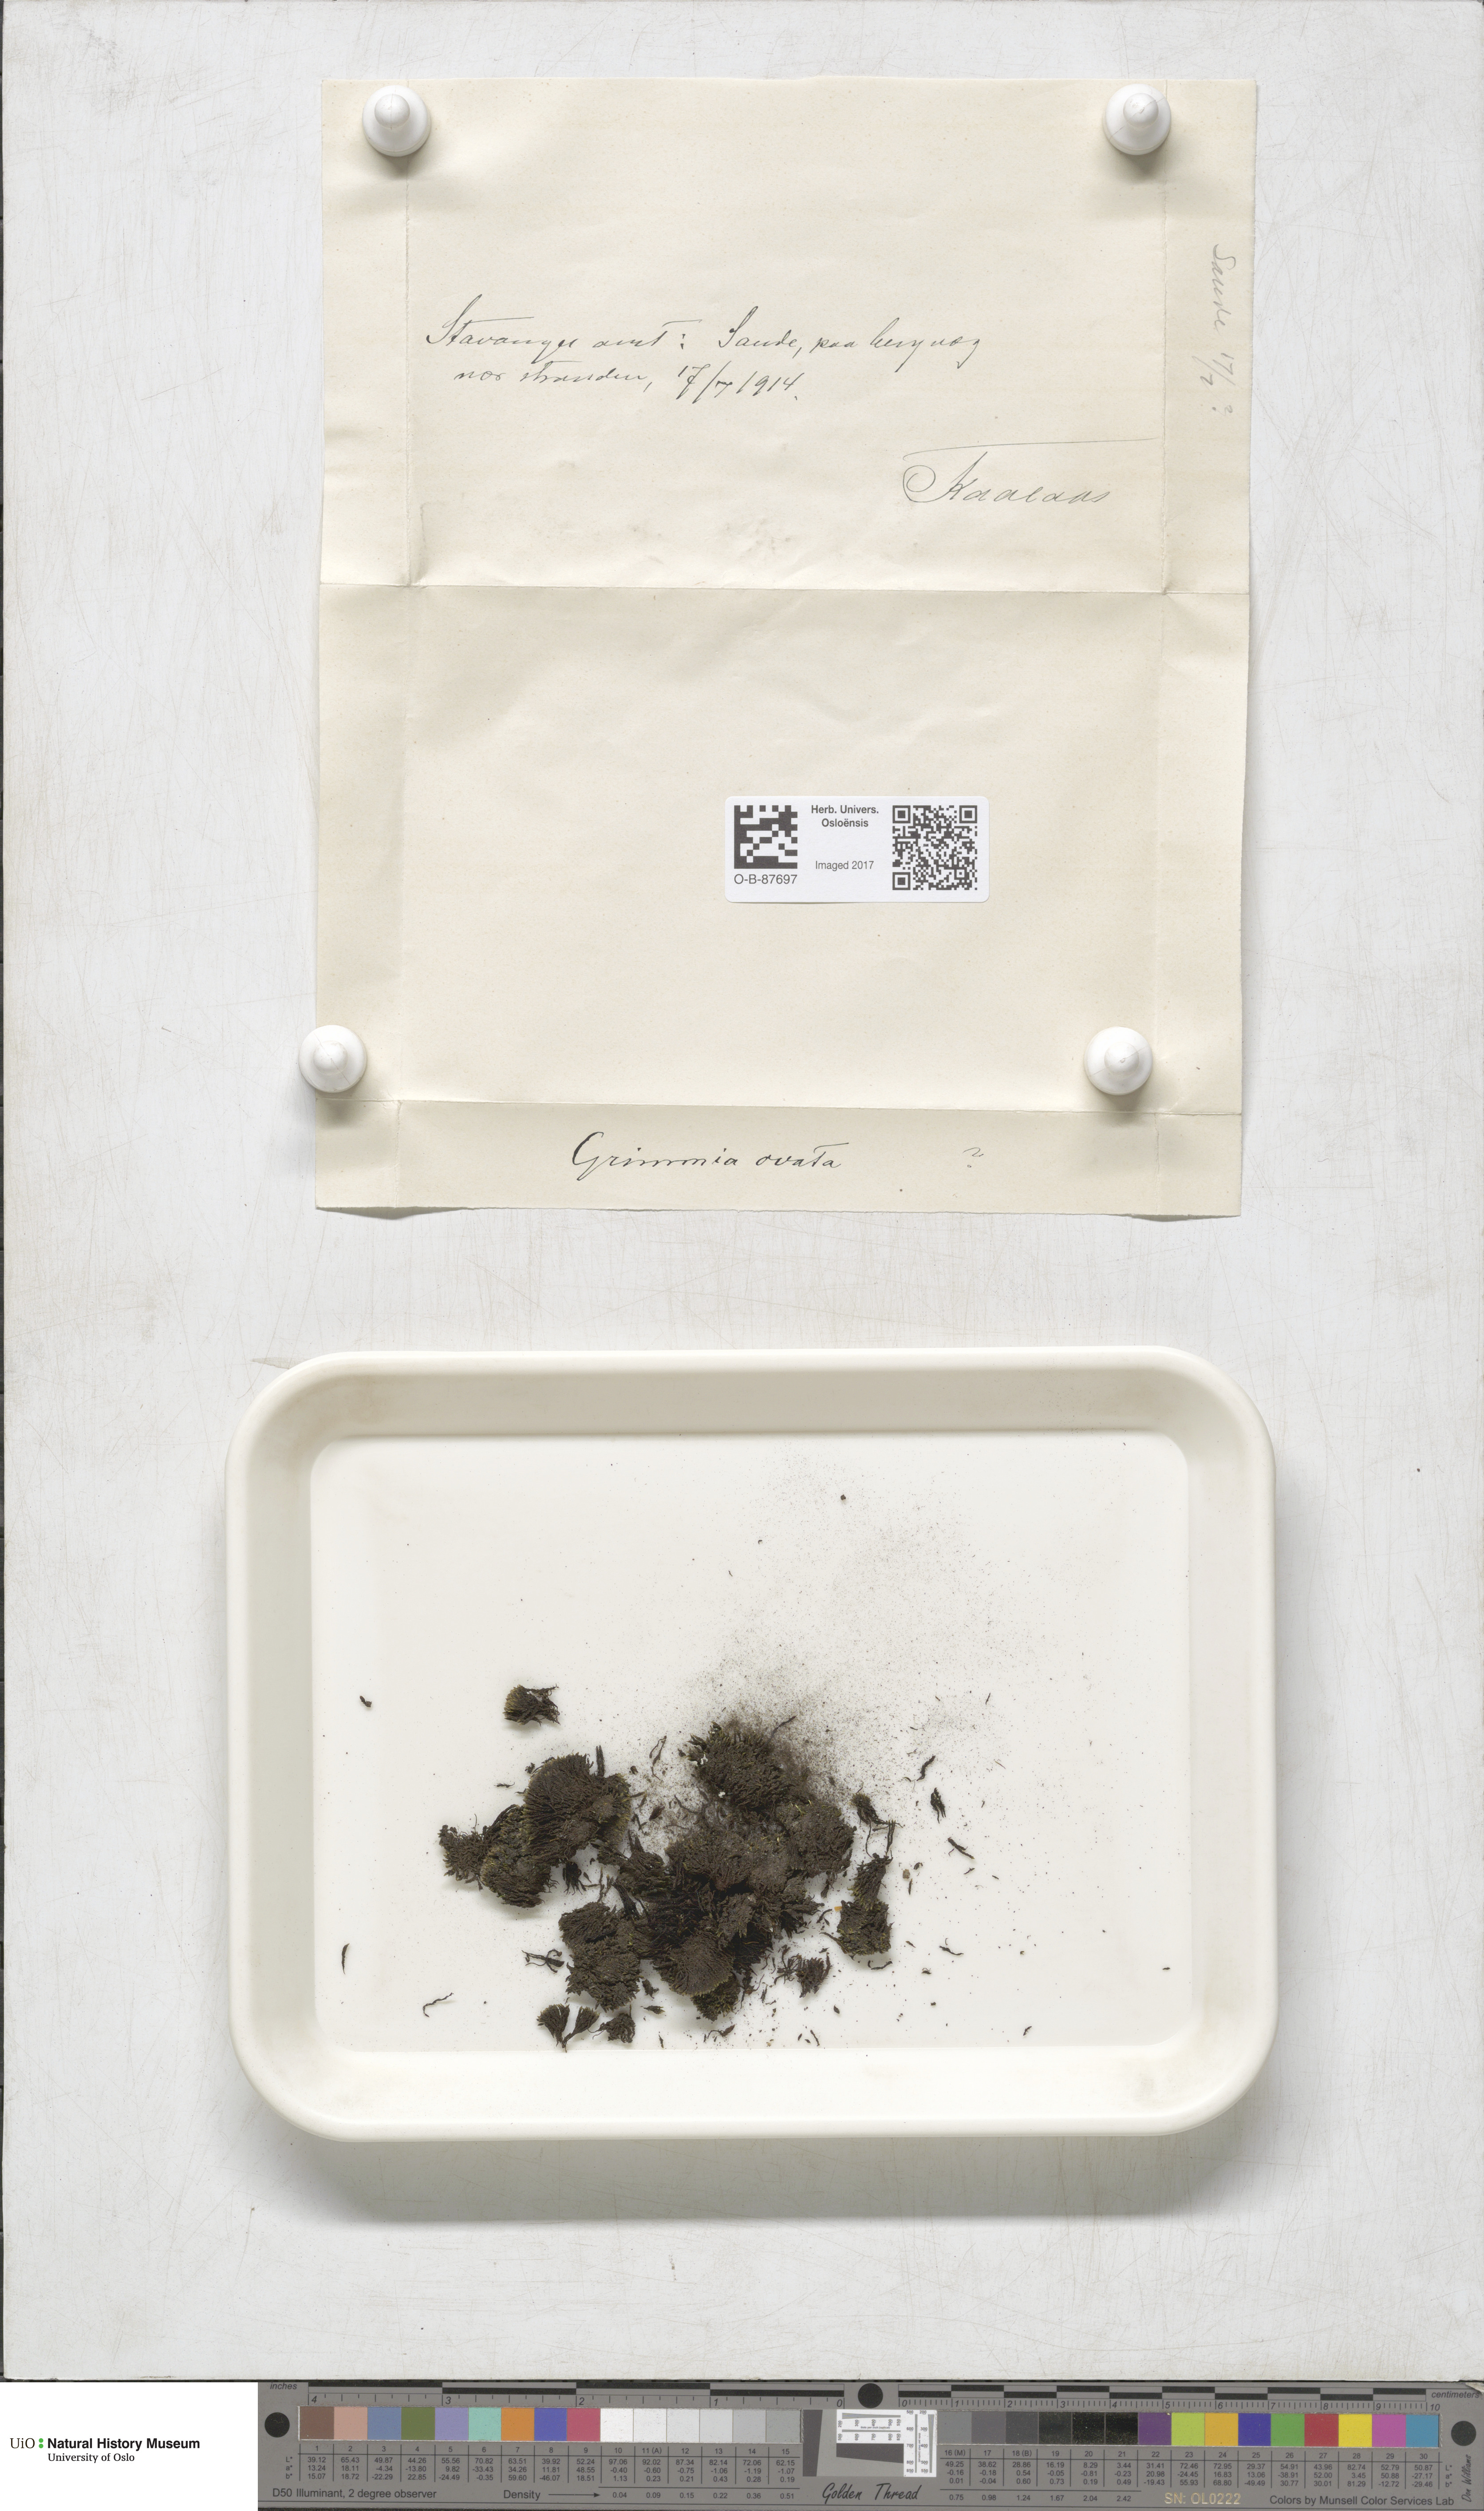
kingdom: Plantae
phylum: Bryophyta
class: Bryopsida
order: Grimmiales
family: Grimmiaceae
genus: Grimmia
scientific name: Grimmia ovalis
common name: Oval grimmia
